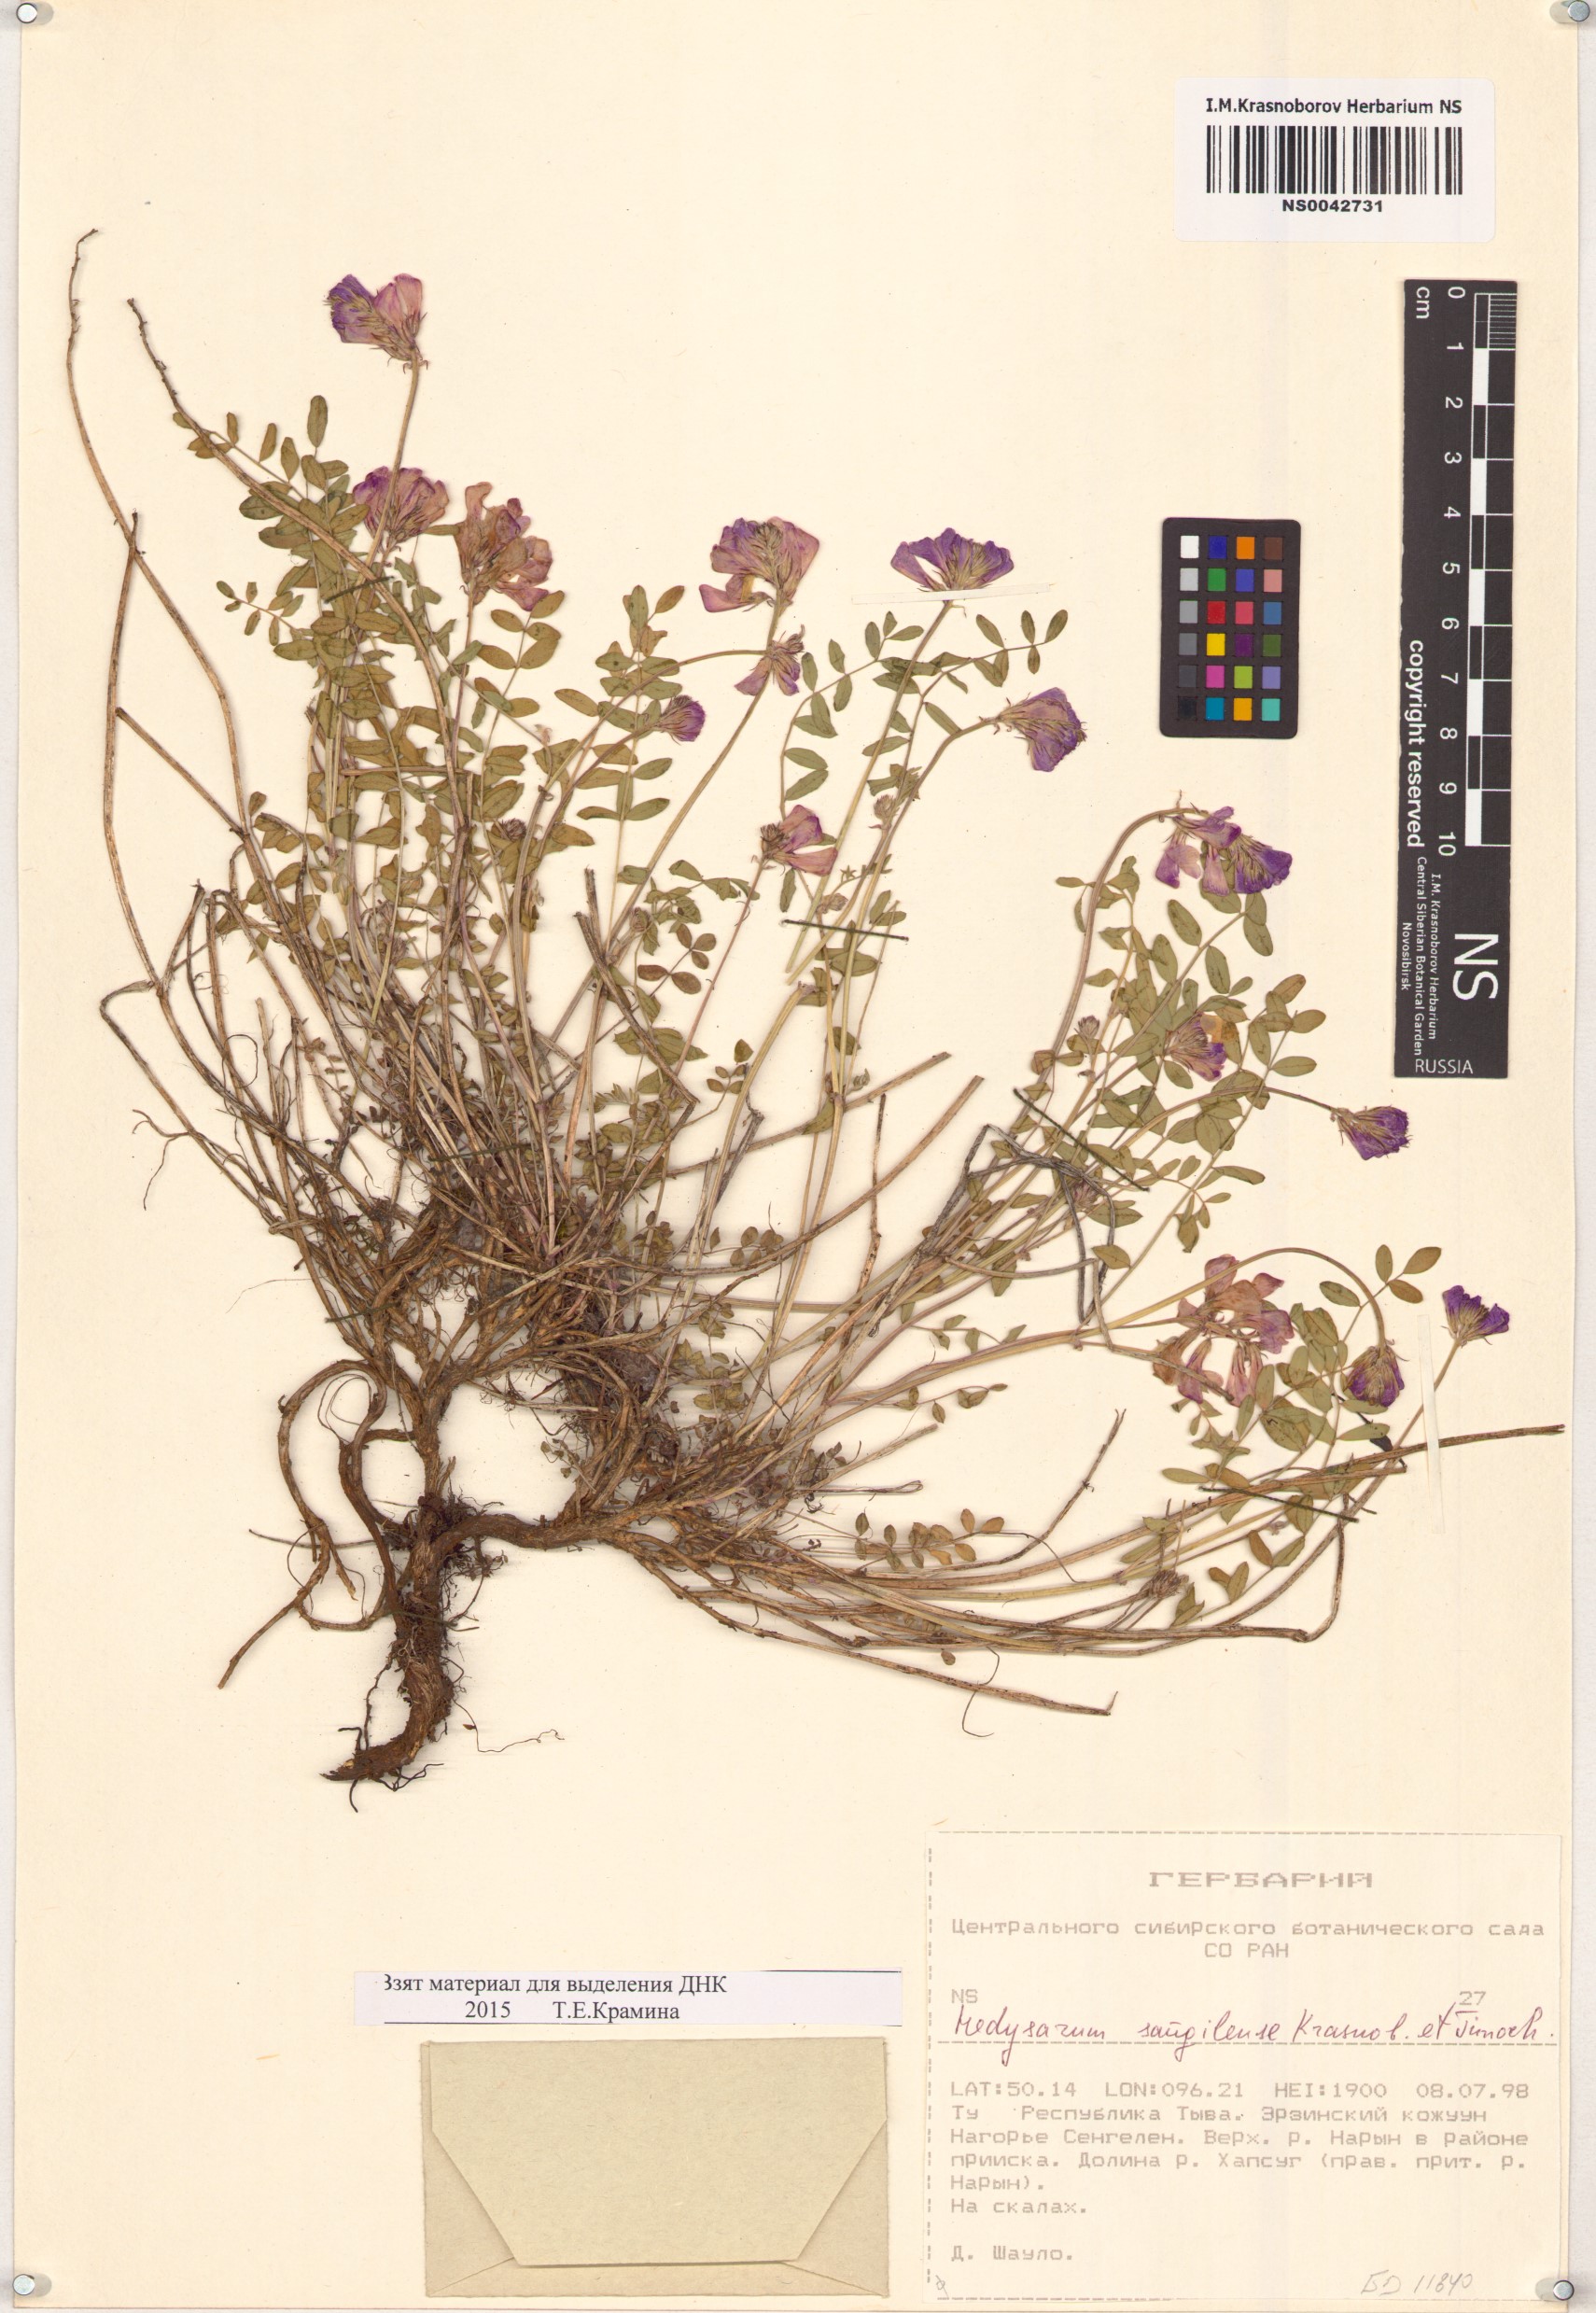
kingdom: Plantae
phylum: Tracheophyta
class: Magnoliopsida
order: Fabales
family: Fabaceae
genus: Hedysarum
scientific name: Hedysarum sangilense
